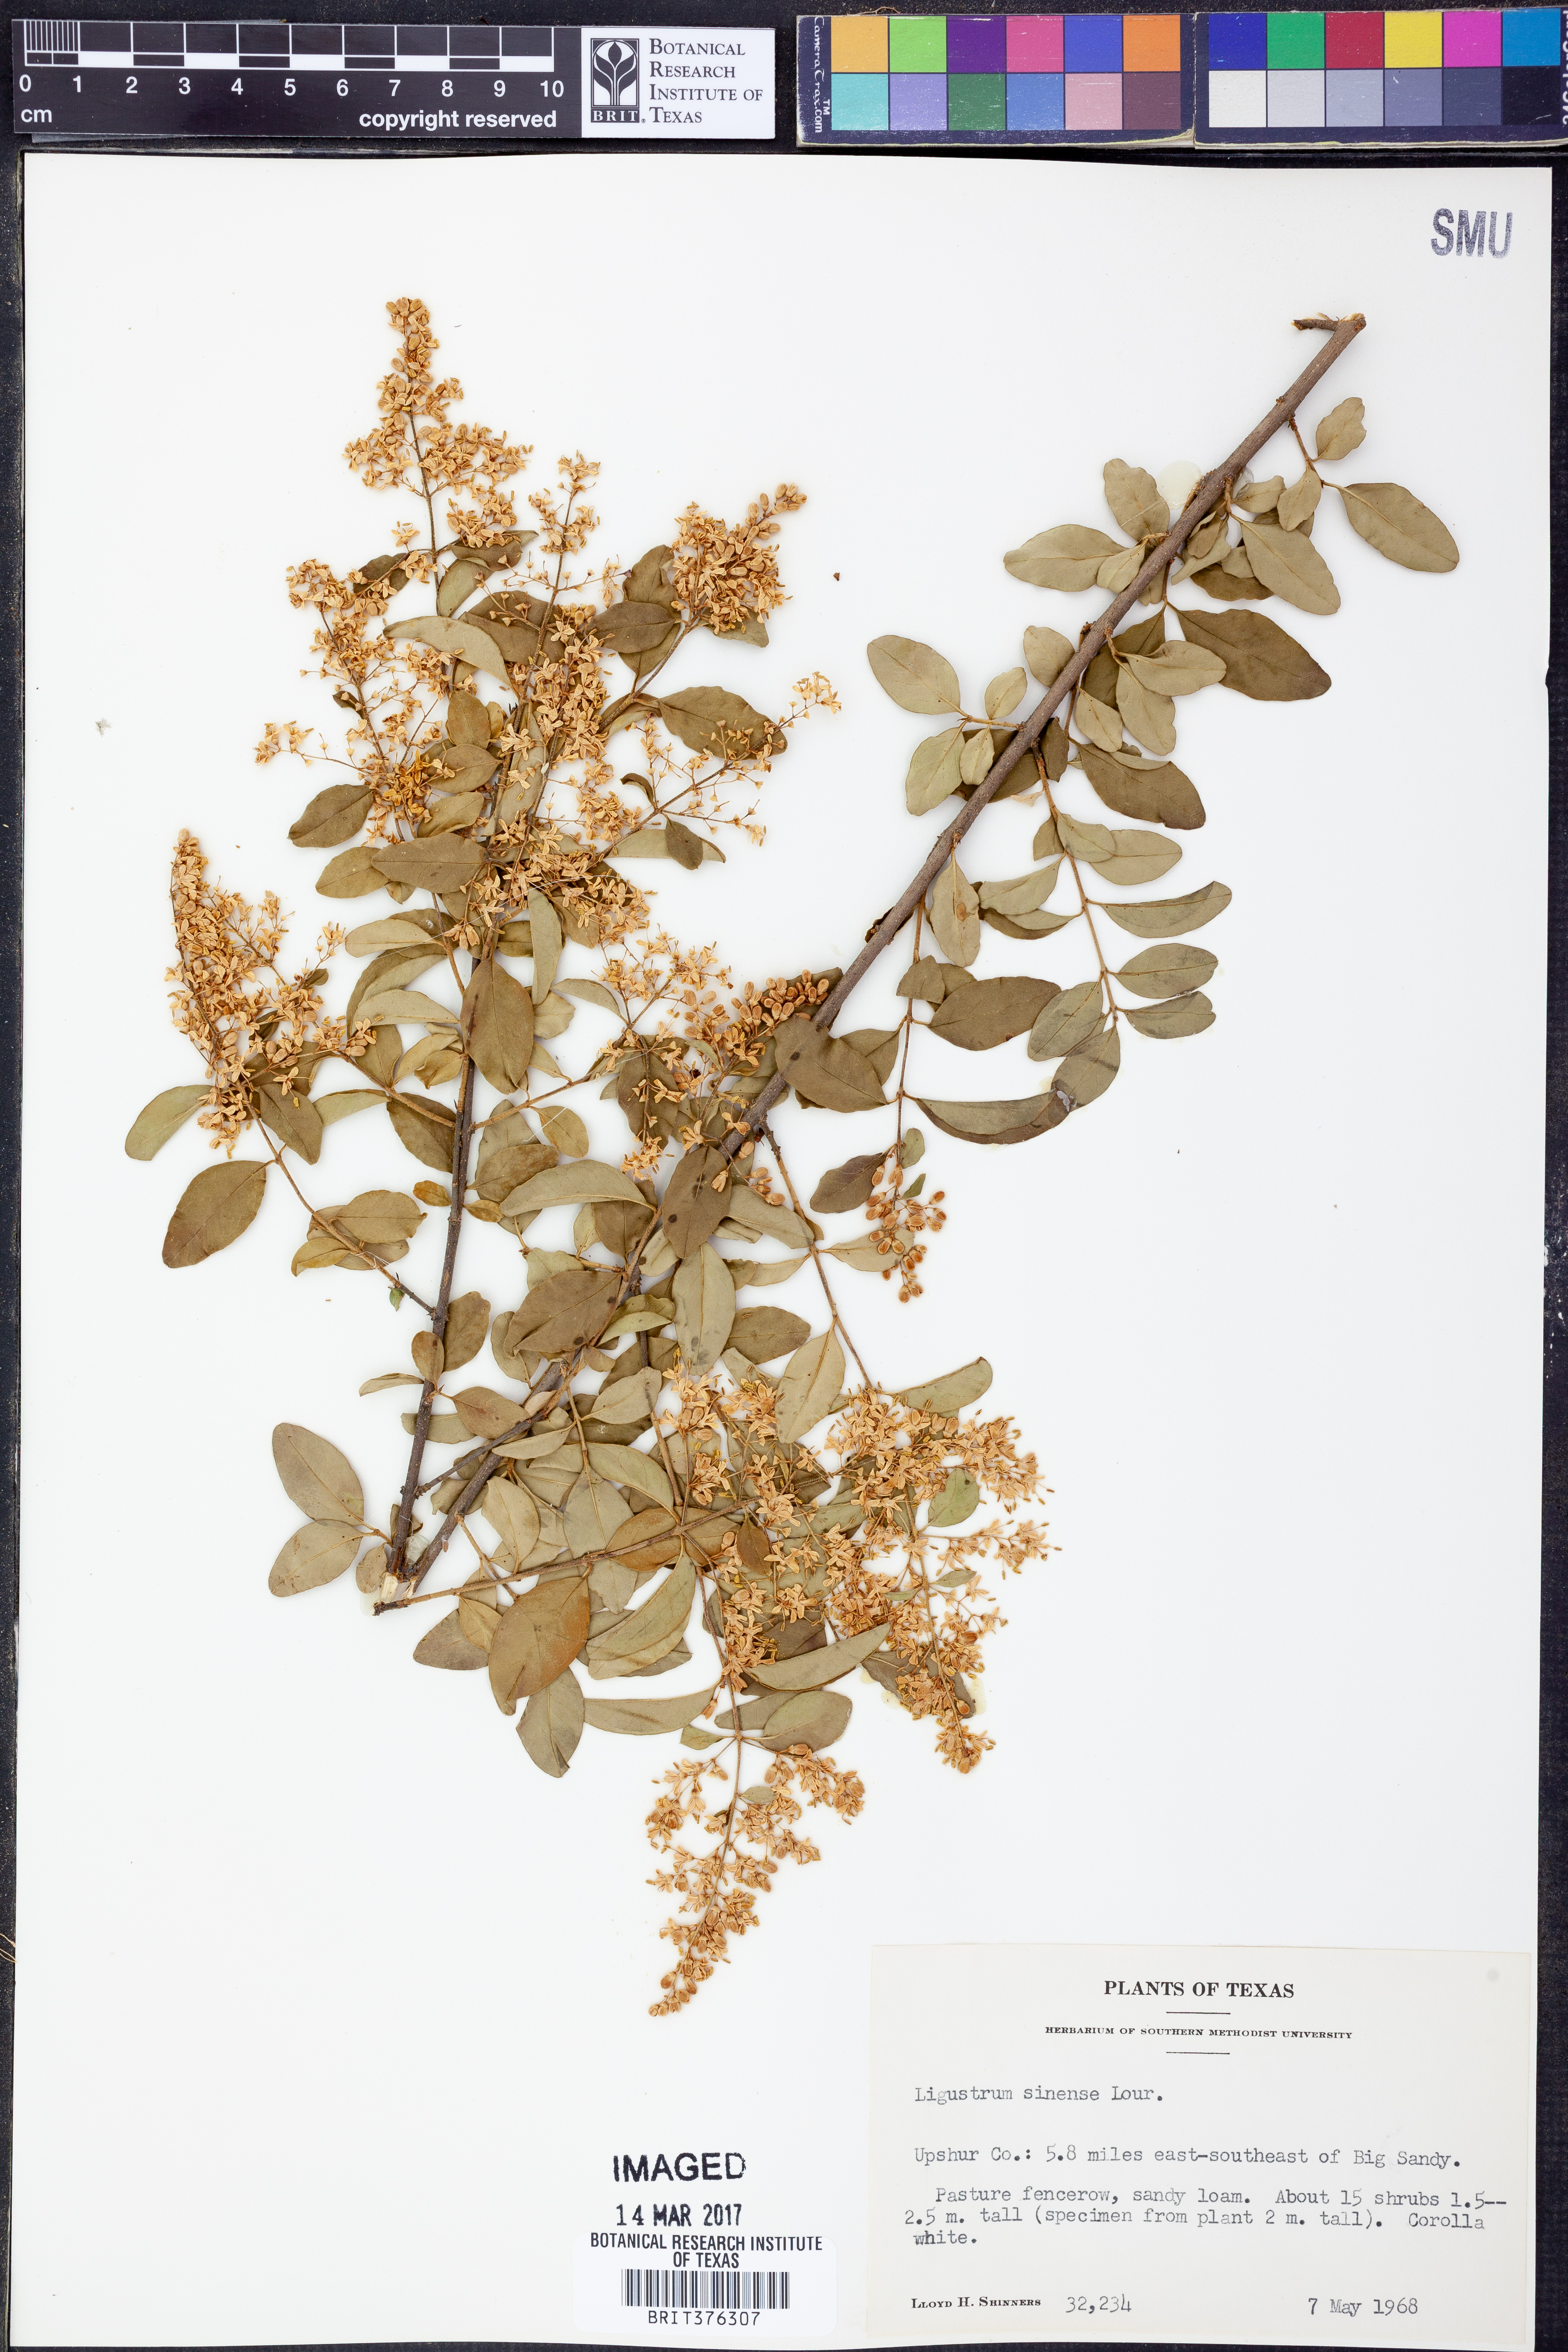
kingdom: Plantae
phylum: Tracheophyta
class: Magnoliopsida
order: Lamiales
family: Oleaceae
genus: Ligustrum
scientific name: Ligustrum sinense
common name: Chinese privet
